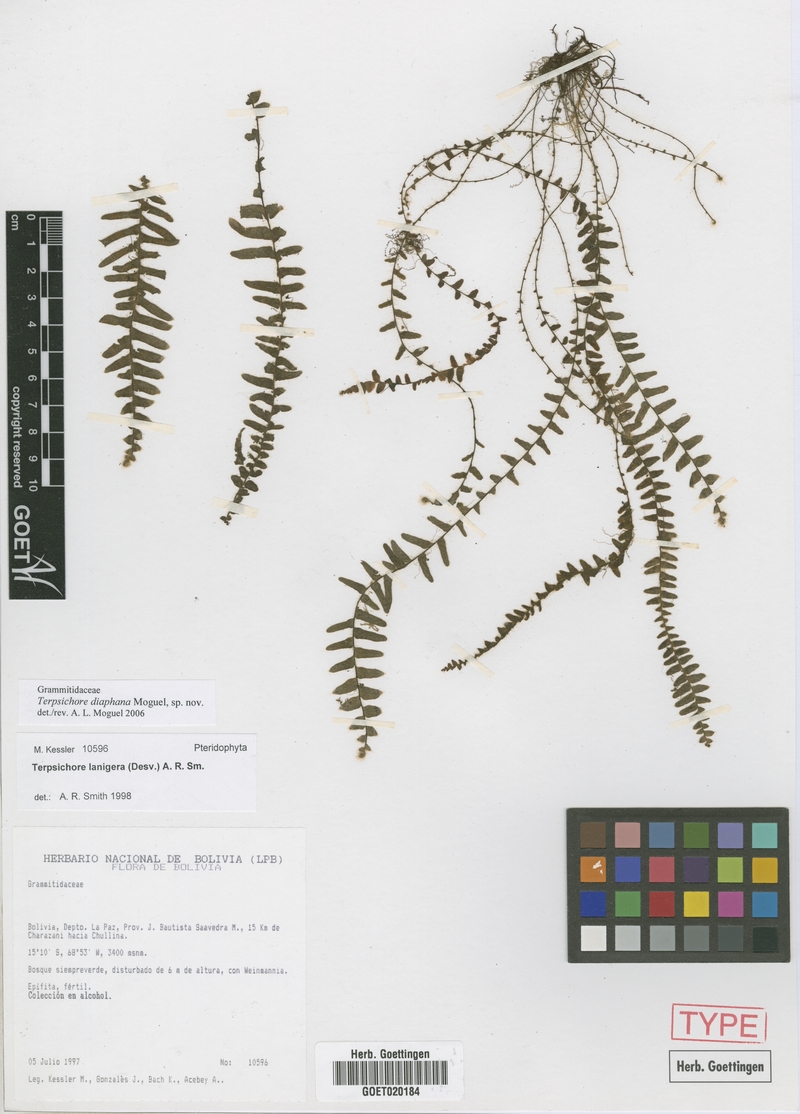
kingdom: Plantae
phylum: Tracheophyta
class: Polypodiopsida
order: Polypodiales
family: Polypodiaceae
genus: Alansmia
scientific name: Alansmia diaphana
